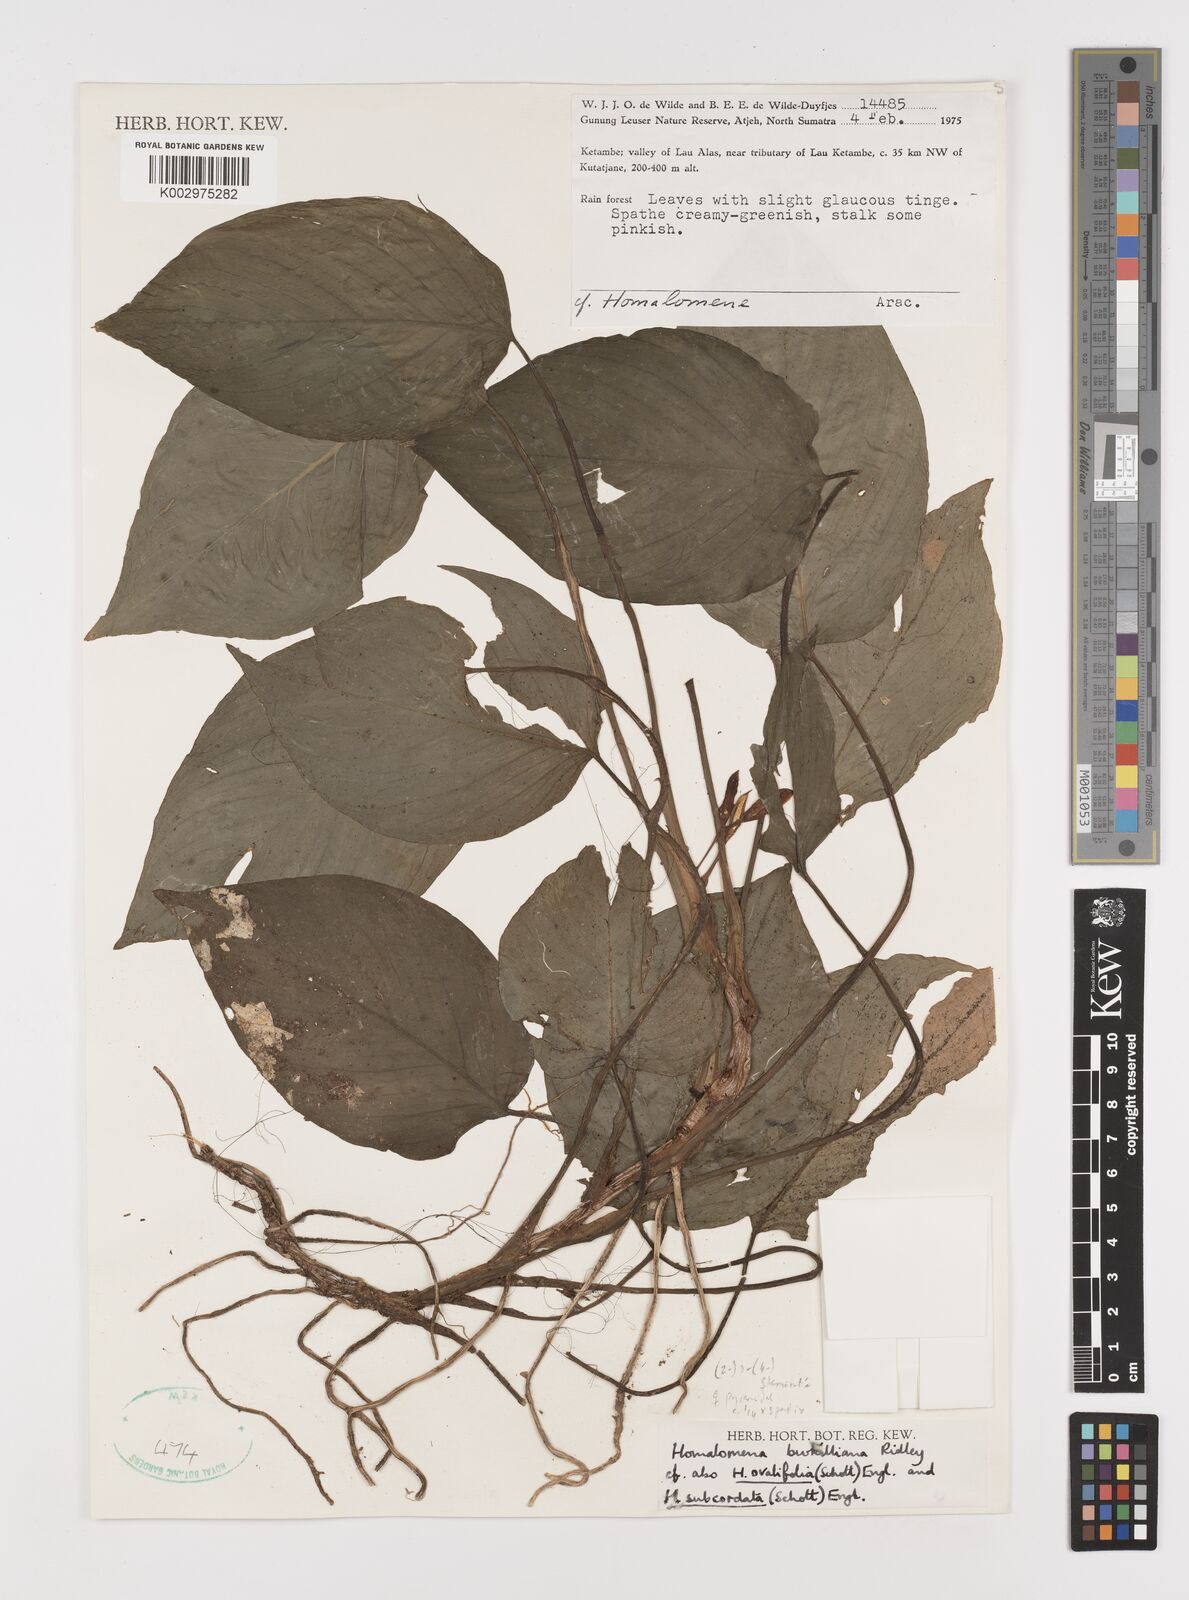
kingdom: Plantae
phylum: Tracheophyta
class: Liliopsida
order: Alismatales
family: Araceae
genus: Homalomena
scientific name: Homalomena burkilliana
